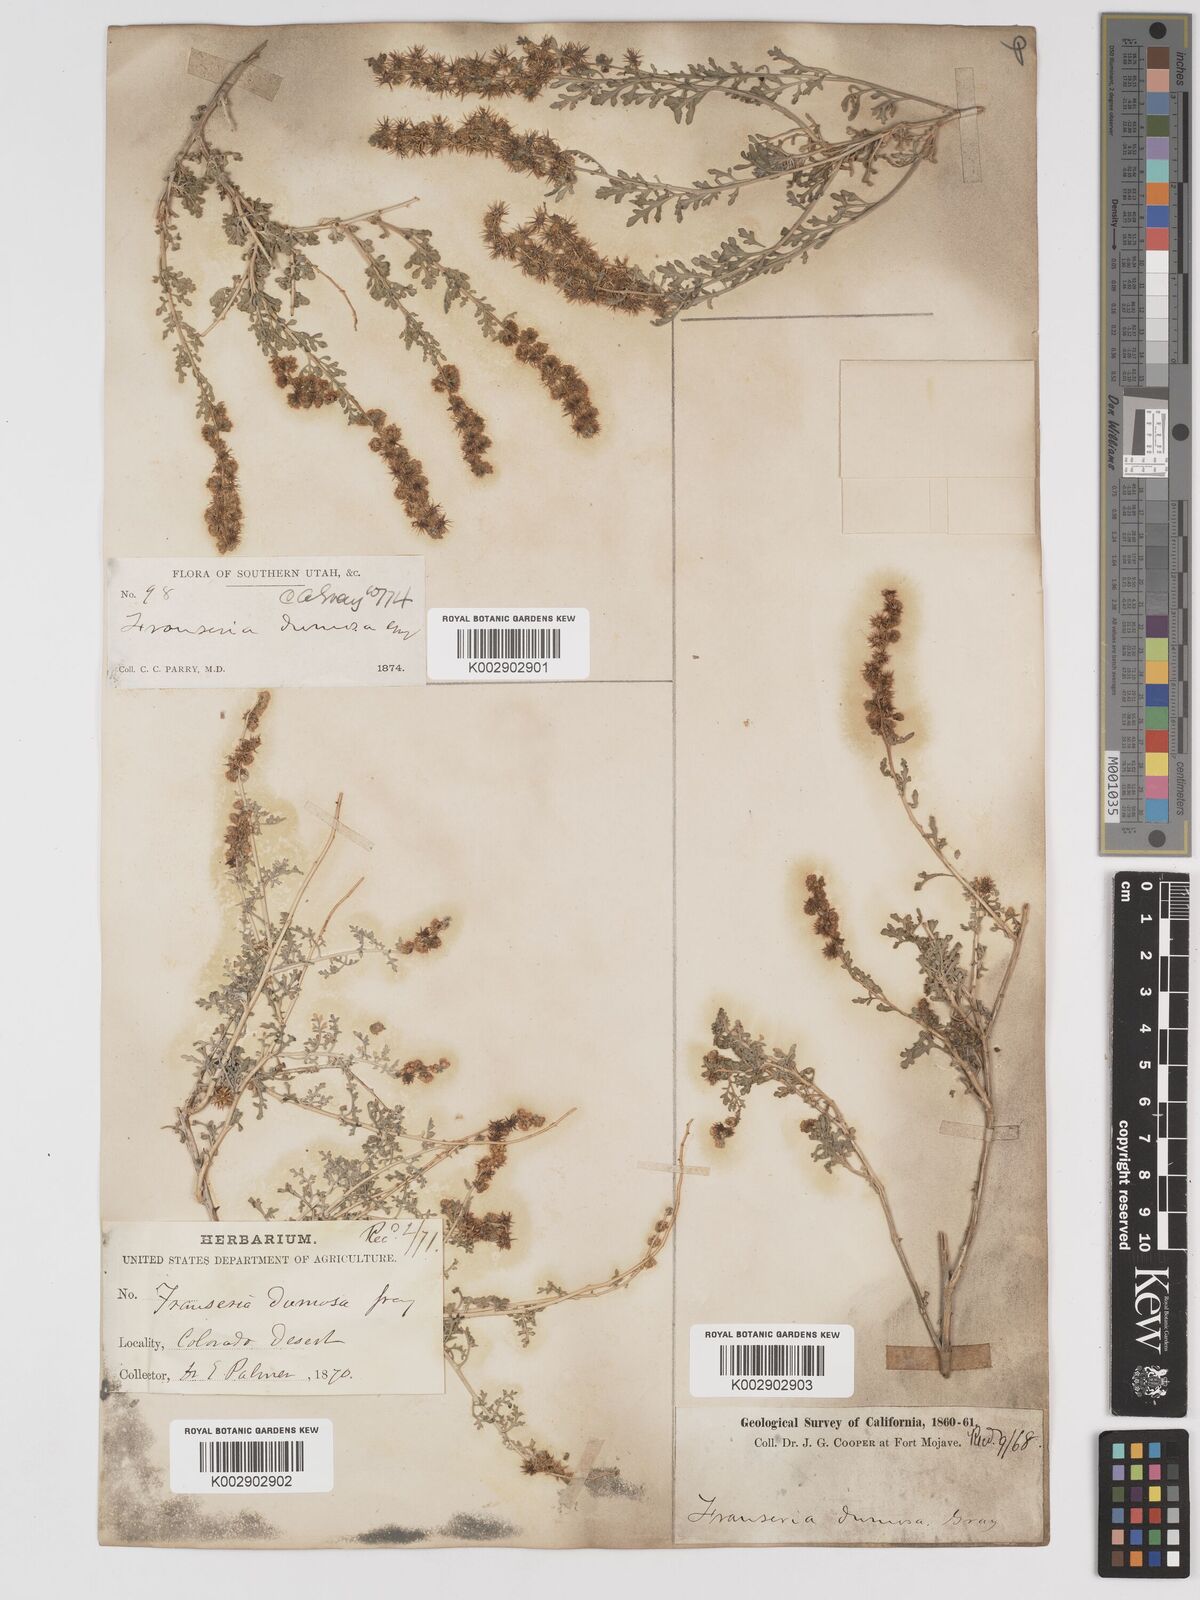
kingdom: Plantae
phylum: Tracheophyta
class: Magnoliopsida
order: Asterales
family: Asteraceae
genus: Ambrosia
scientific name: Ambrosia dumosa
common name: Bur-sage
